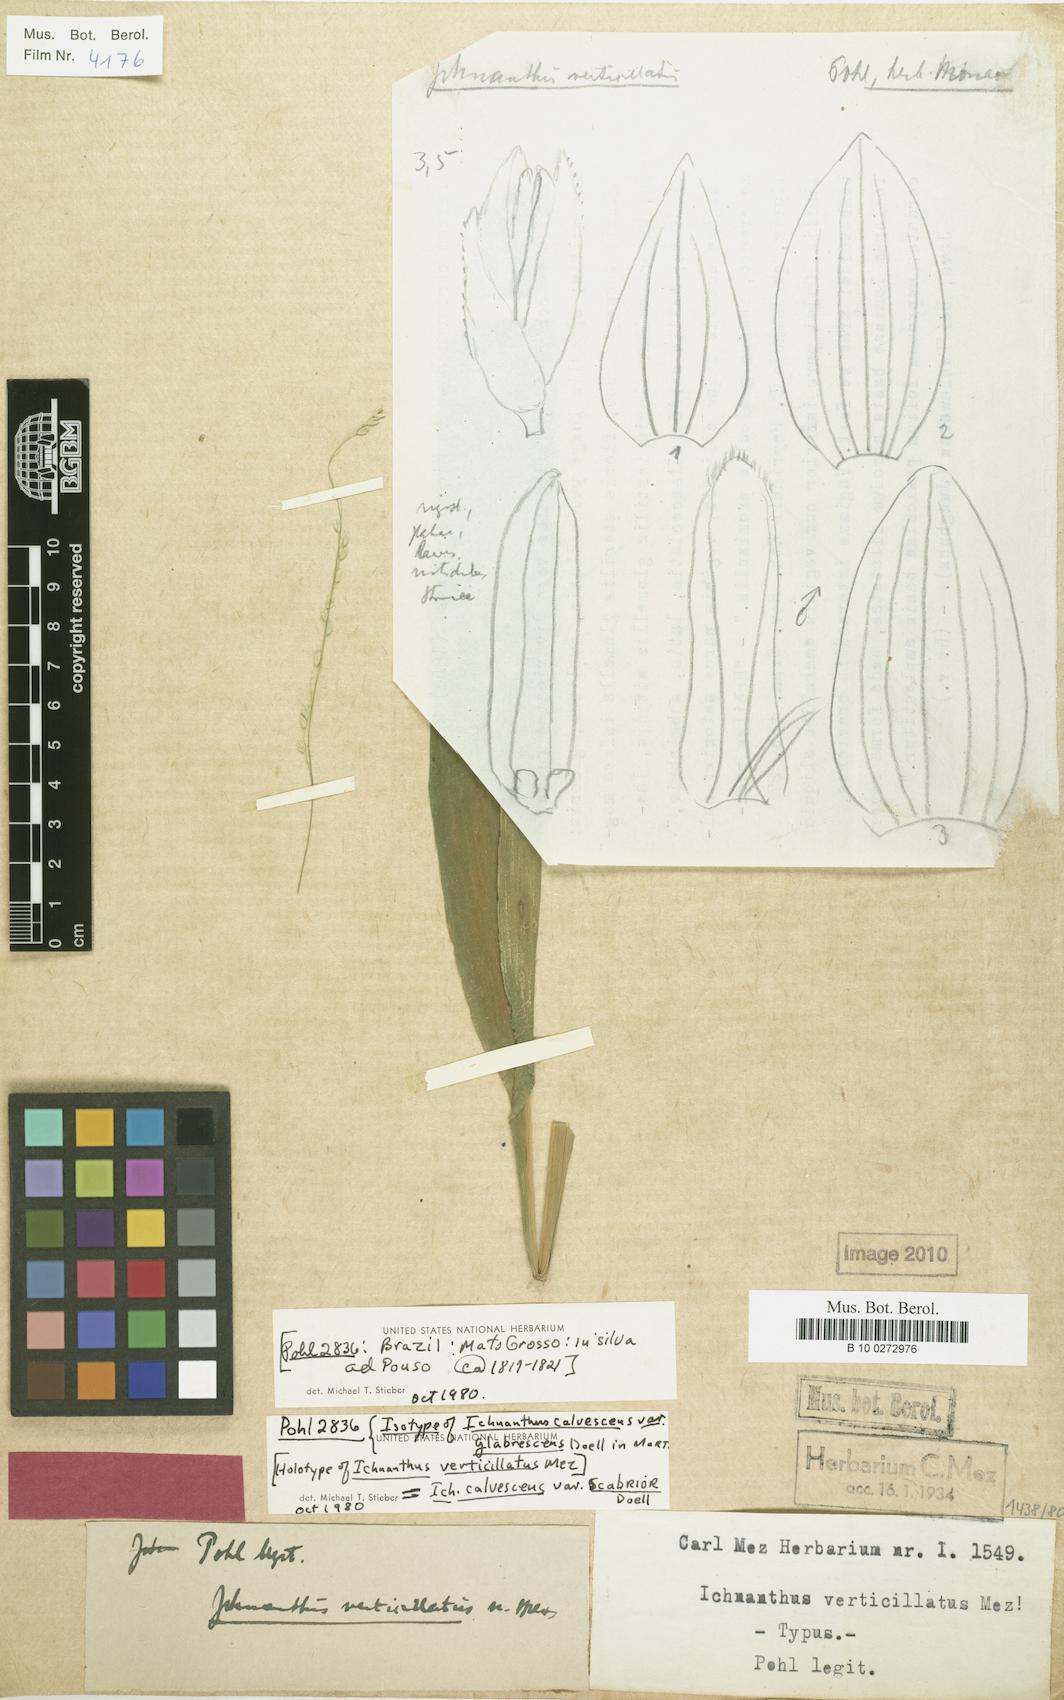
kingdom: Plantae
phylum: Tracheophyta
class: Liliopsida
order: Poales
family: Poaceae
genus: Ichnanthus
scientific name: Ichnanthus calvescens
